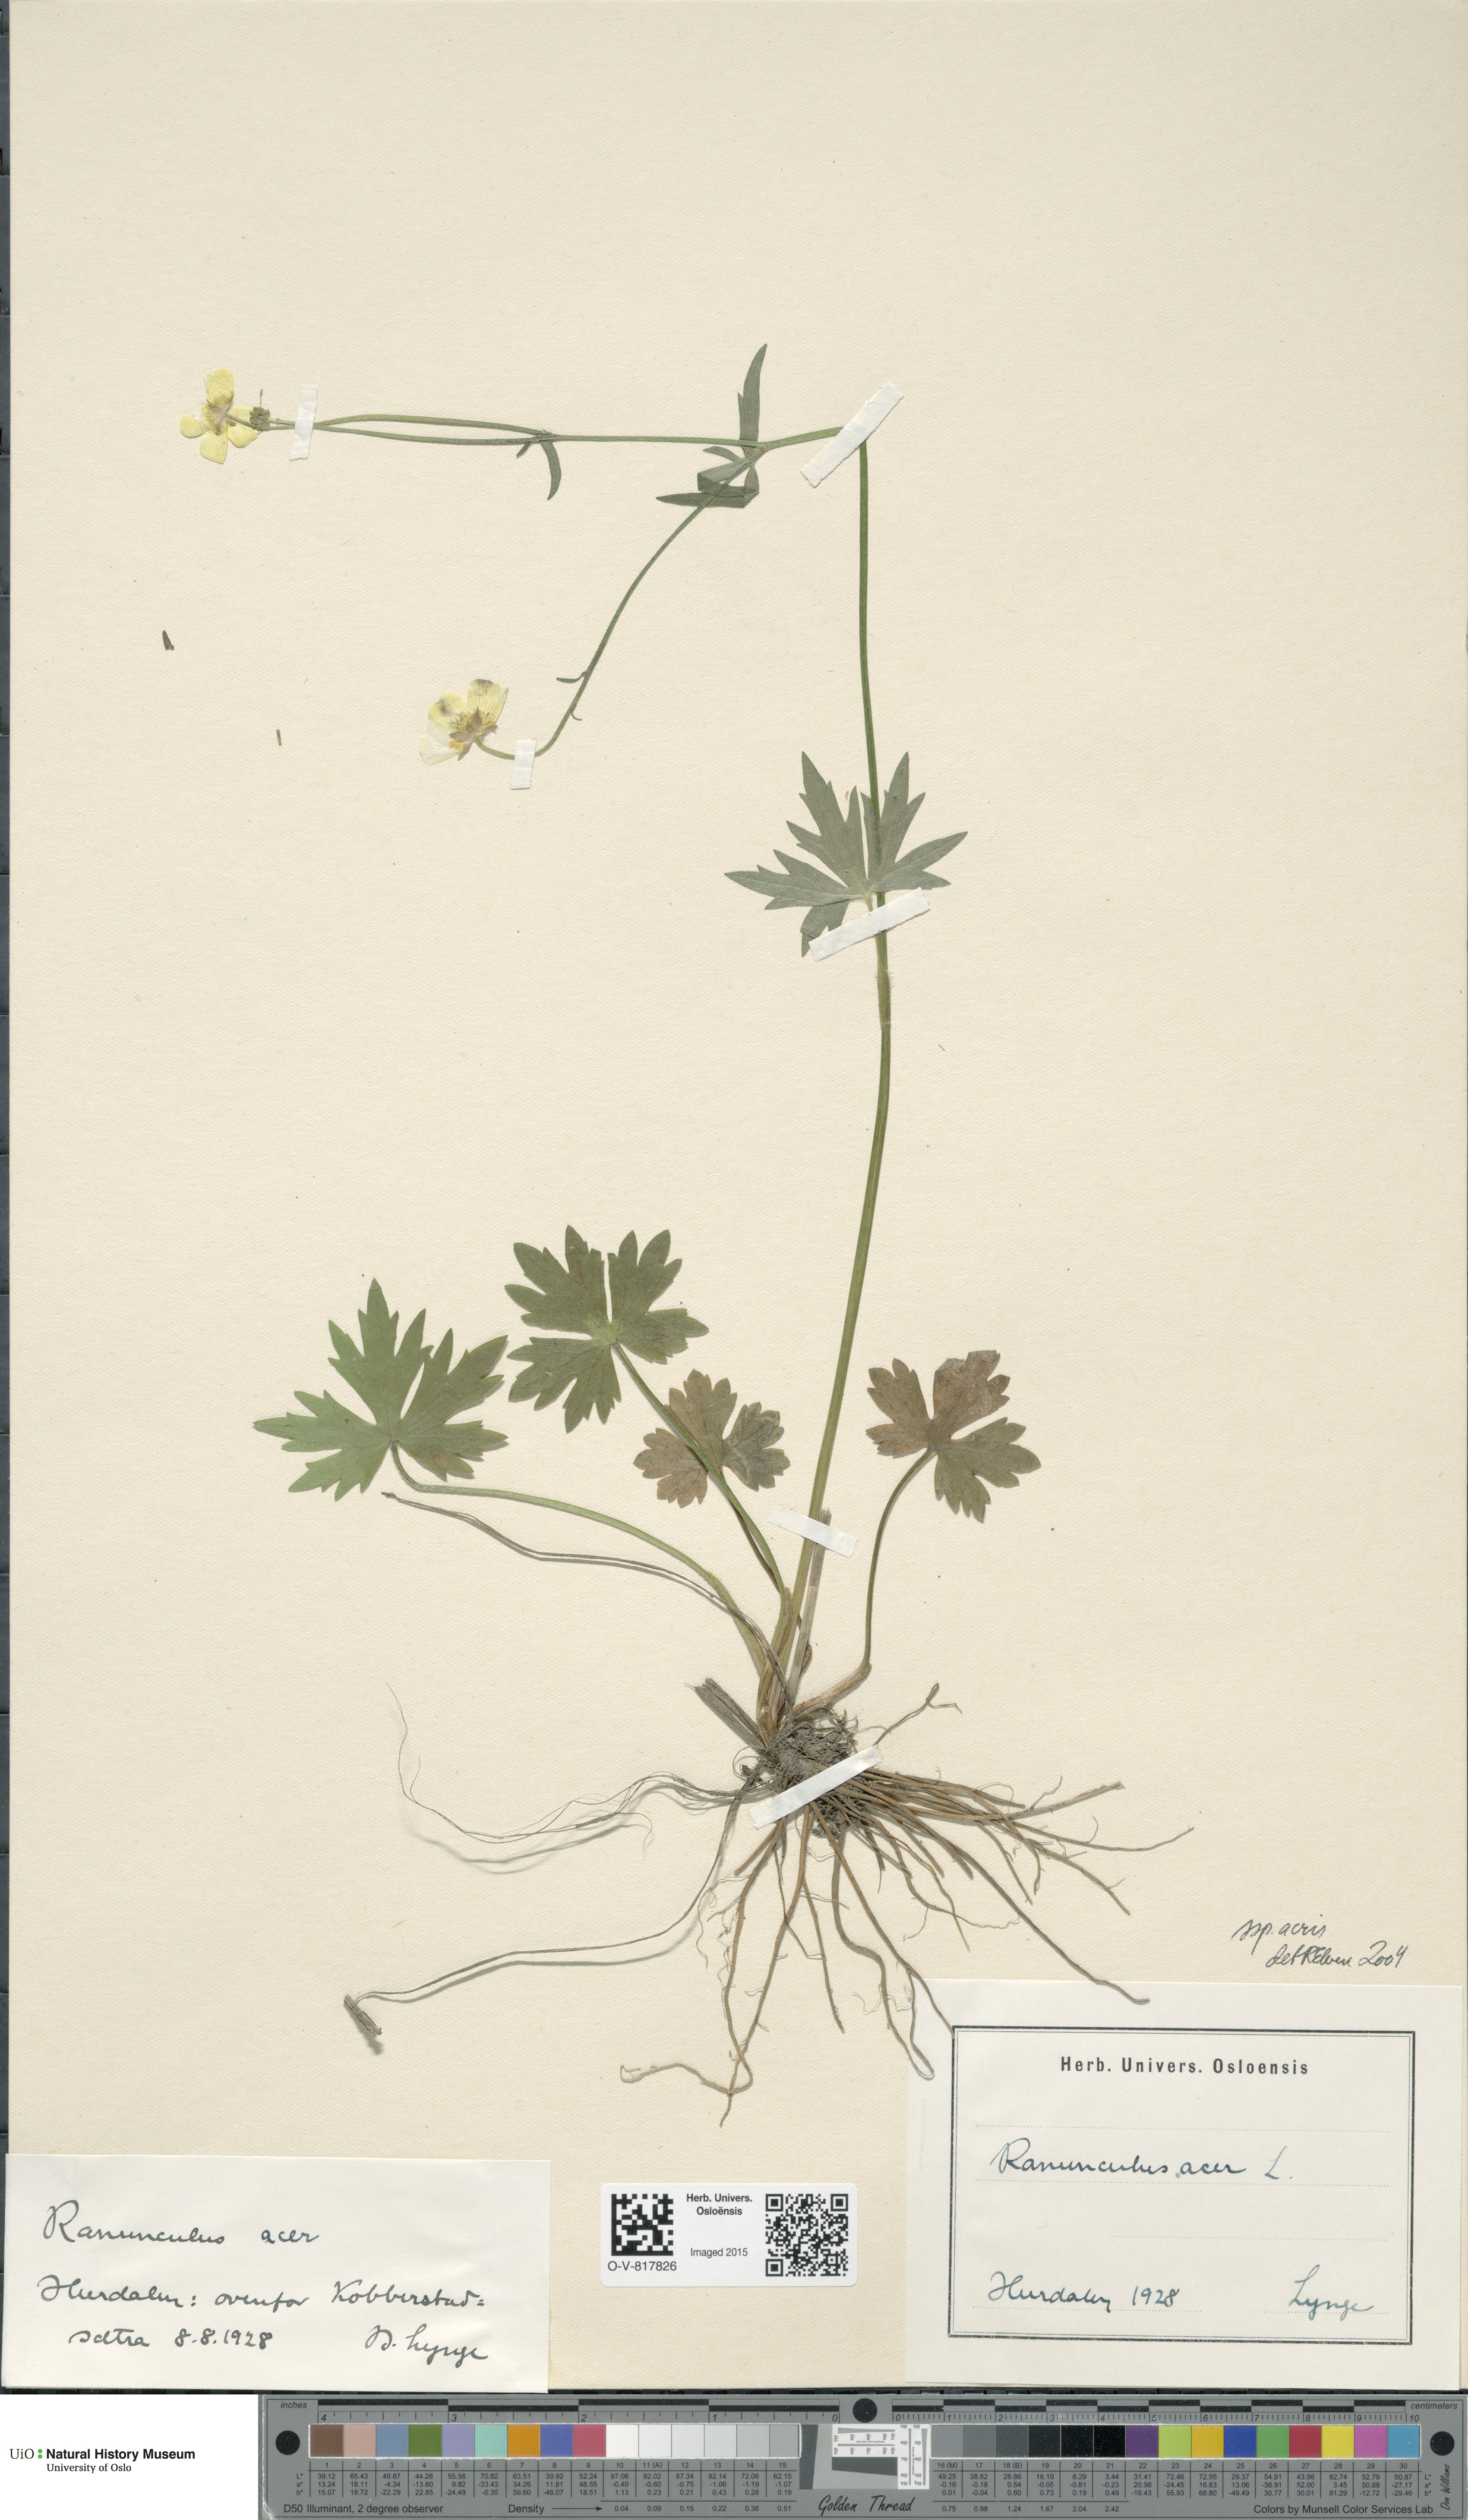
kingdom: Plantae
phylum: Tracheophyta
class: Magnoliopsida
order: Ranunculales
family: Ranunculaceae
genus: Ranunculus
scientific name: Ranunculus acris
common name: Meadow buttercup
